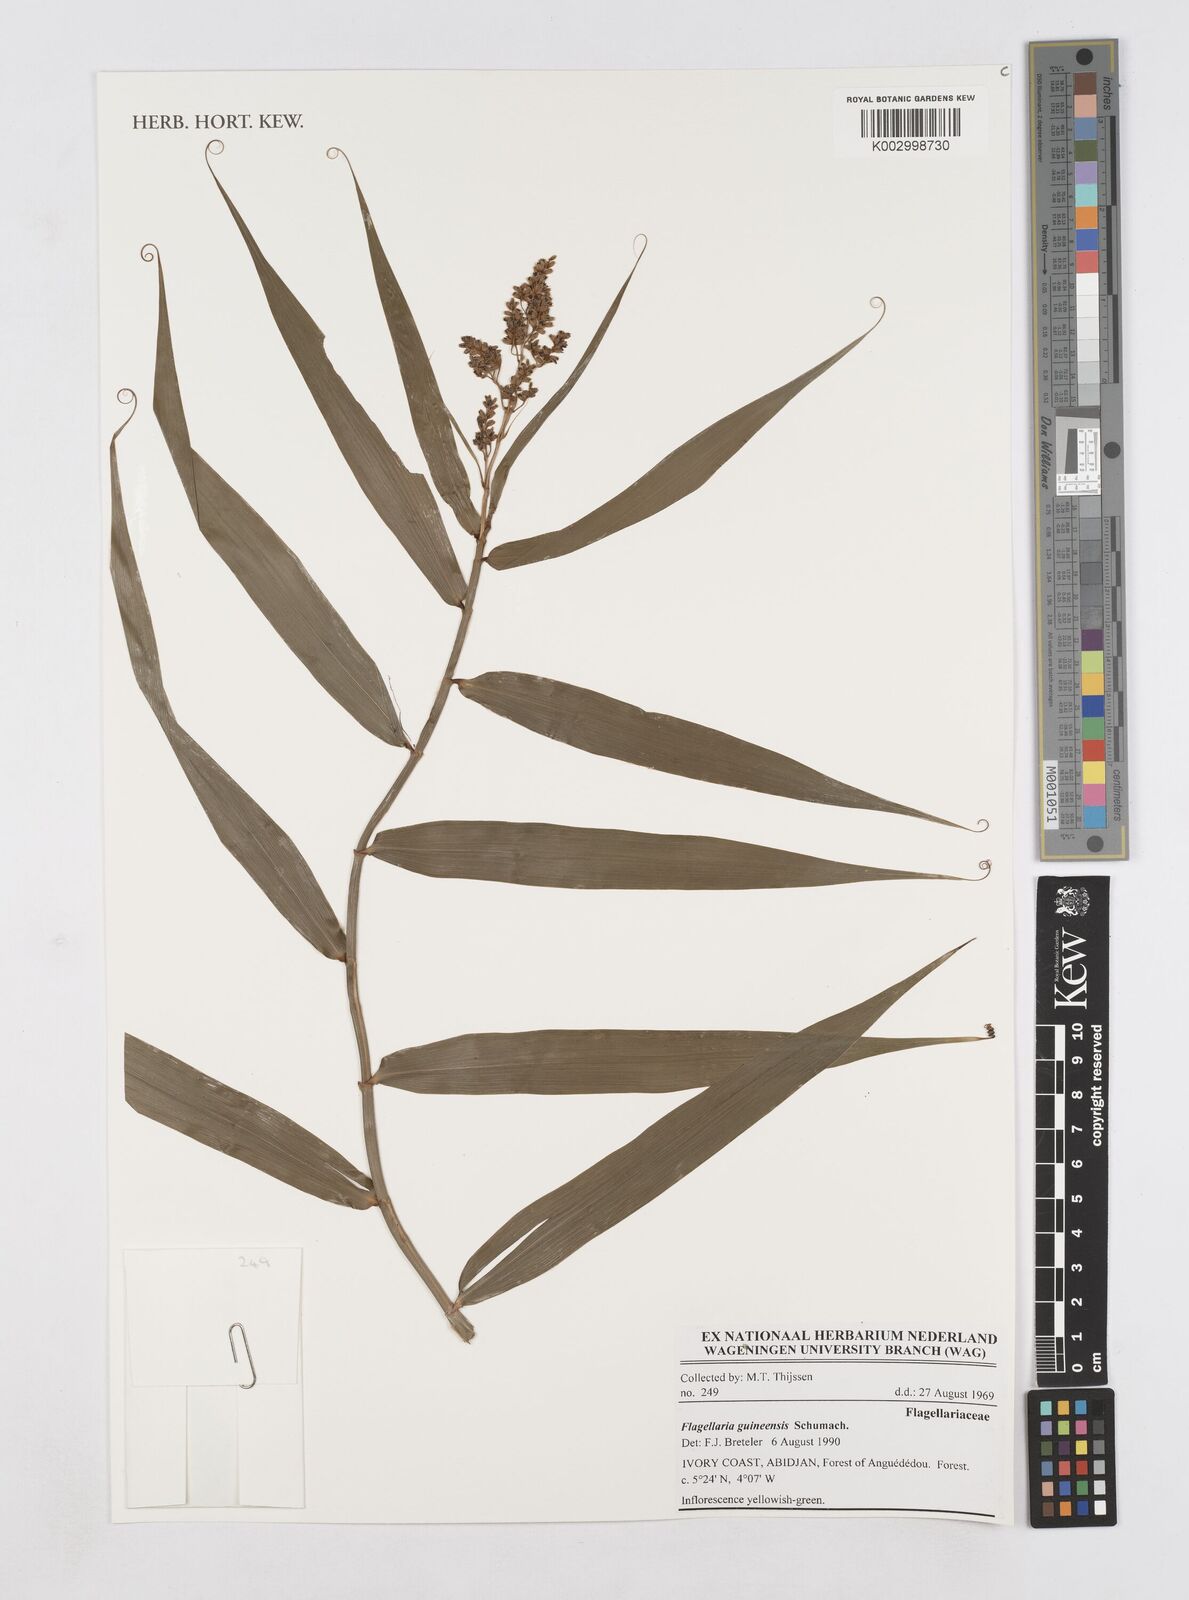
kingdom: Plantae
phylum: Tracheophyta
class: Liliopsida
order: Poales
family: Flagellariaceae
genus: Flagellaria
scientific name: Flagellaria guineensis
